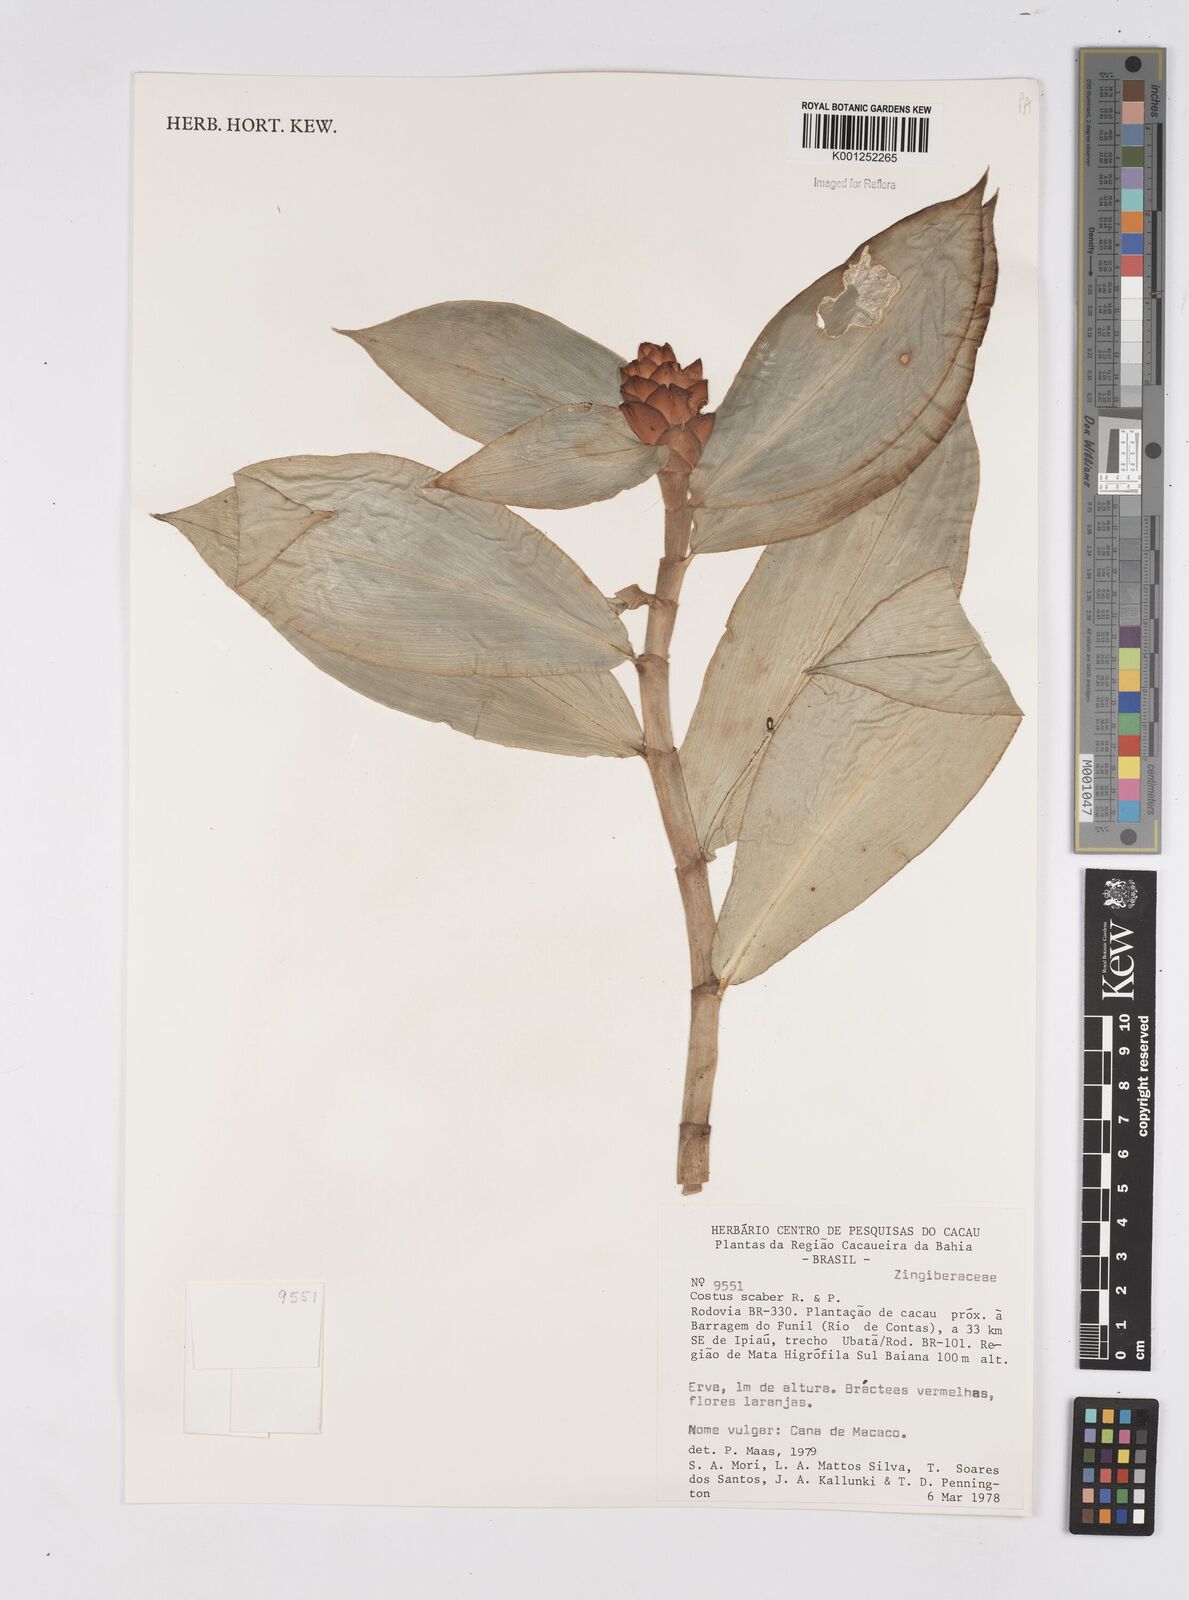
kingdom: Plantae
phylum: Tracheophyta
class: Liliopsida
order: Zingiberales
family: Costaceae
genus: Costus
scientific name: Costus scaber
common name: Spiral head ginger
